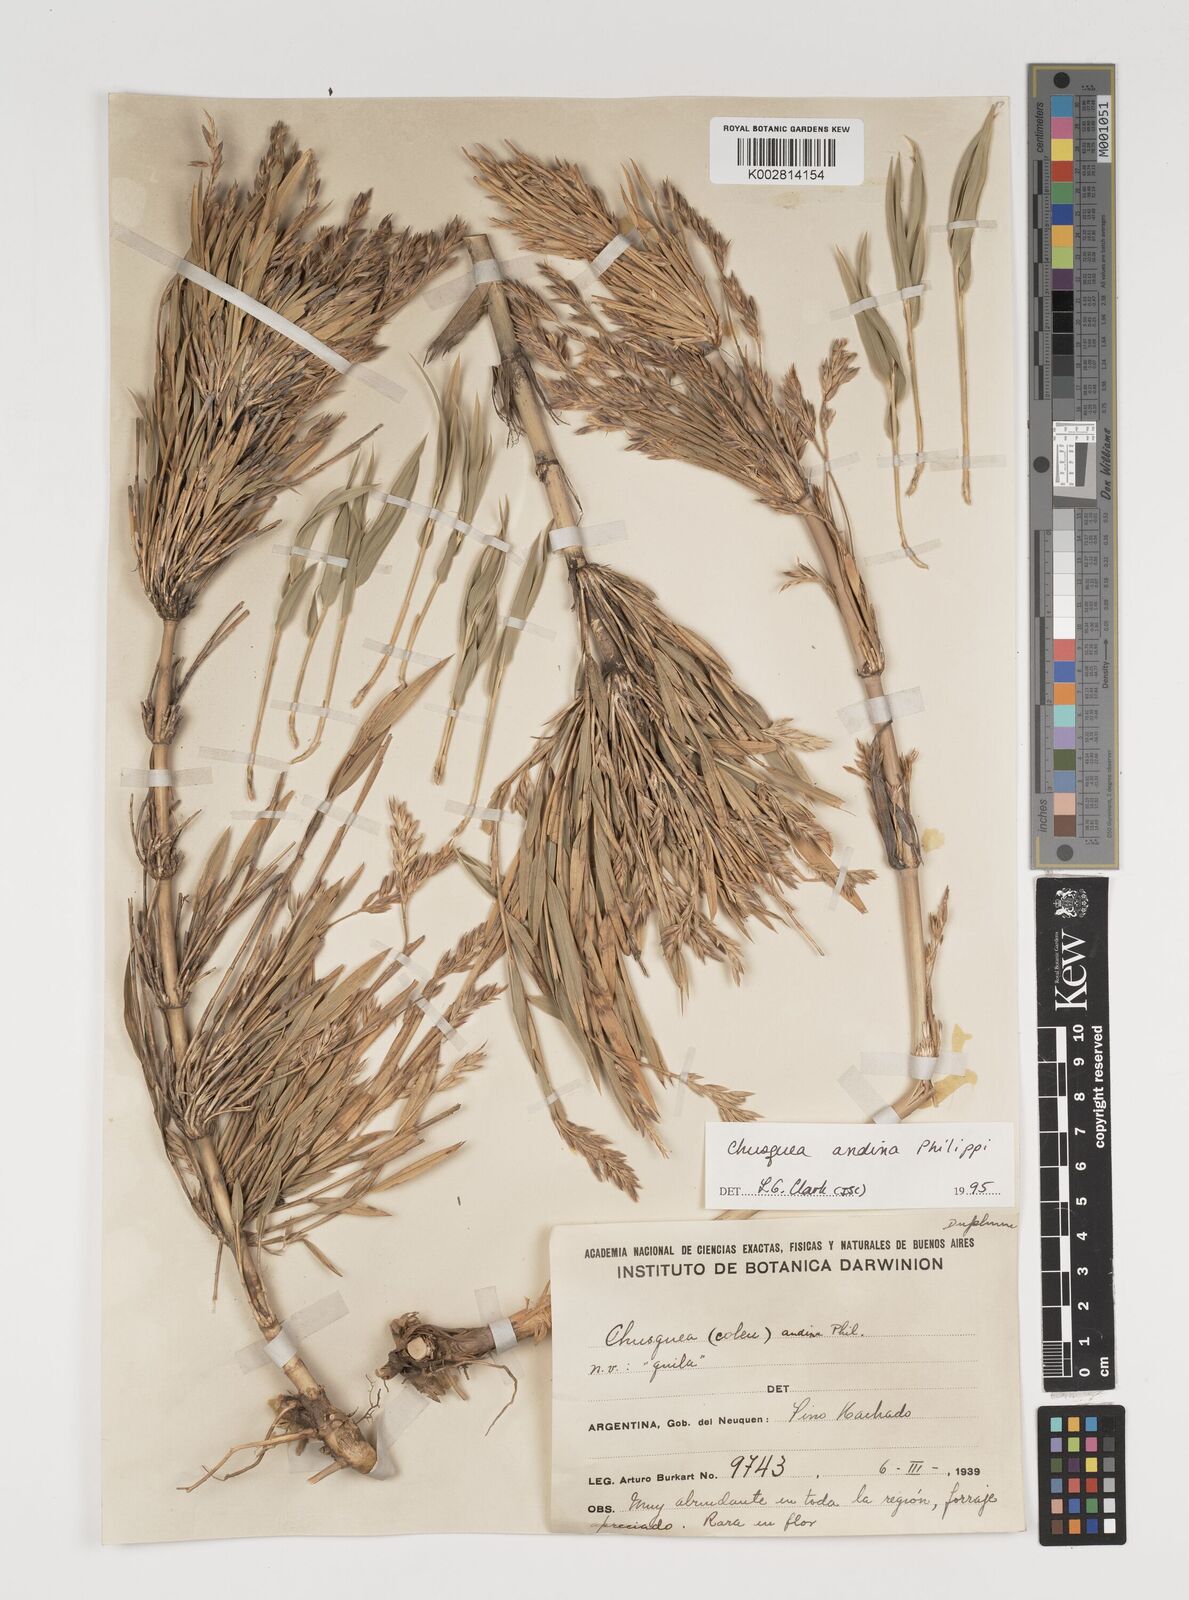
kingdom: Plantae
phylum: Tracheophyta
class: Liliopsida
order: Poales
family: Poaceae
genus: Chusquea
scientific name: Chusquea andina
